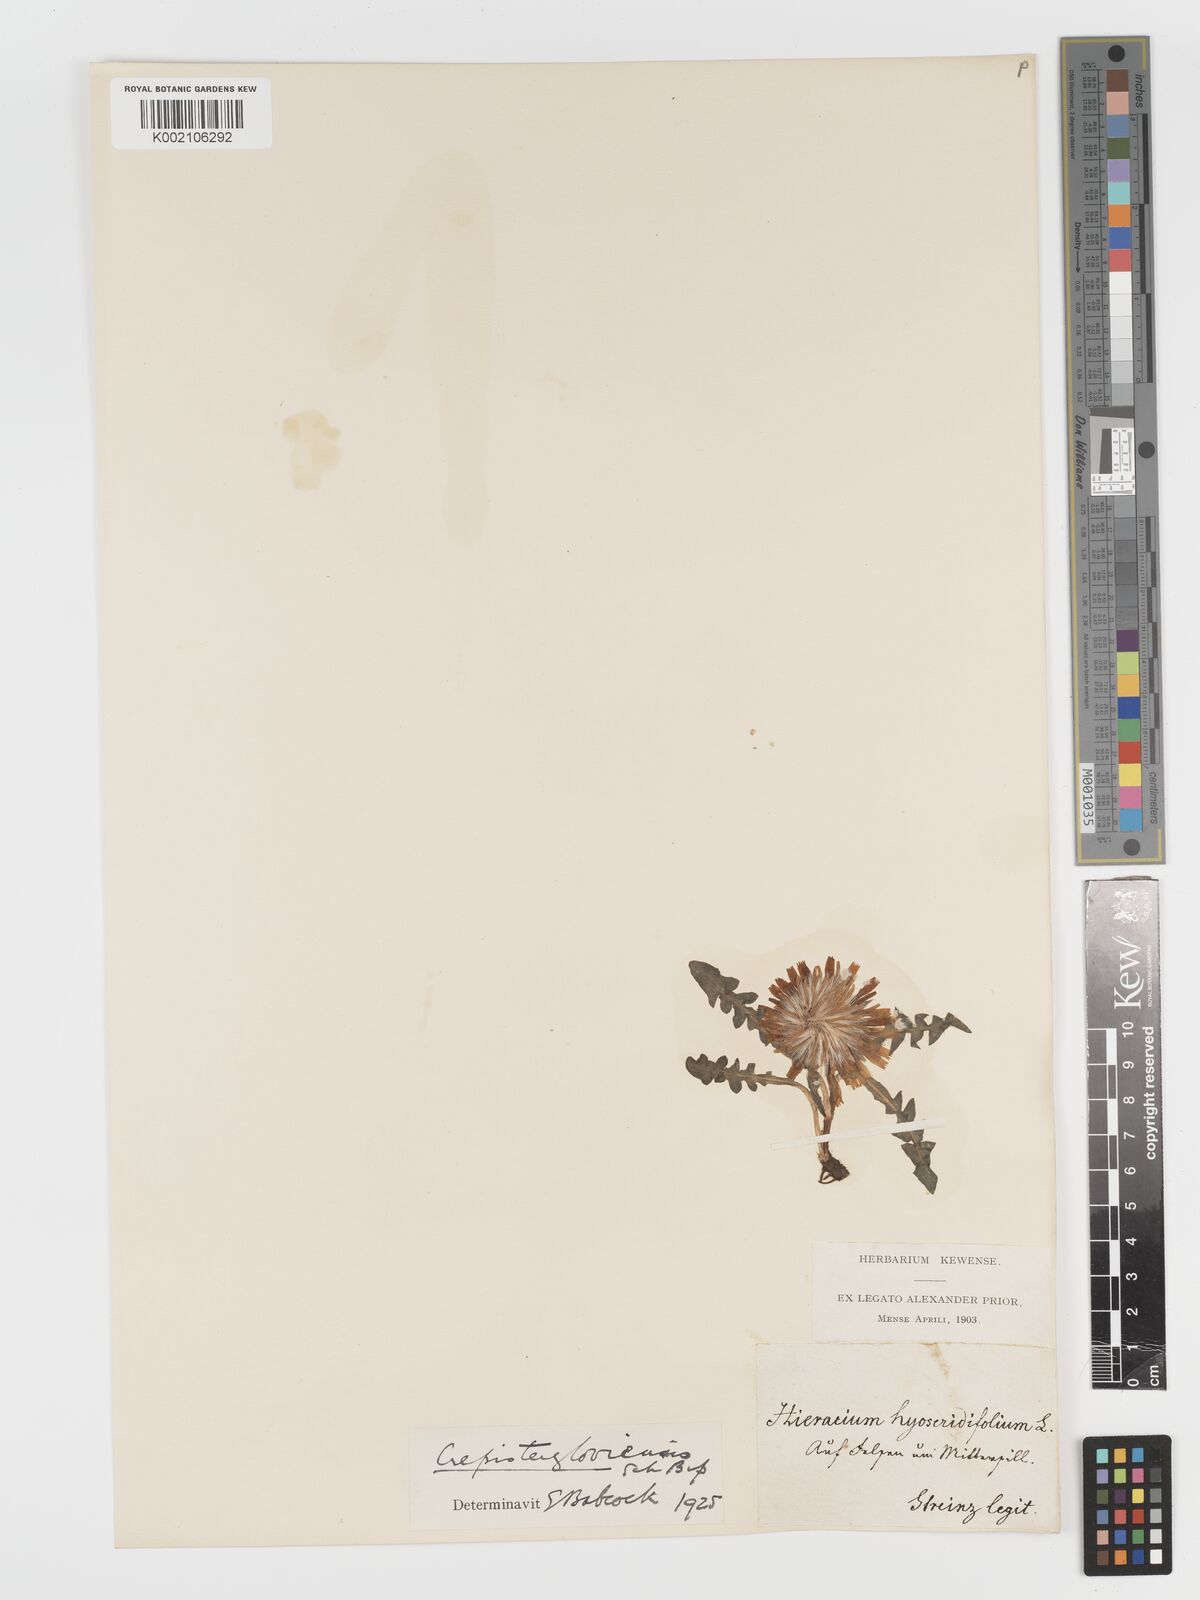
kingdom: Plantae
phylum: Tracheophyta
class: Magnoliopsida
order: Asterales
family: Asteraceae
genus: Crepis
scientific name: Crepis terglouensis
